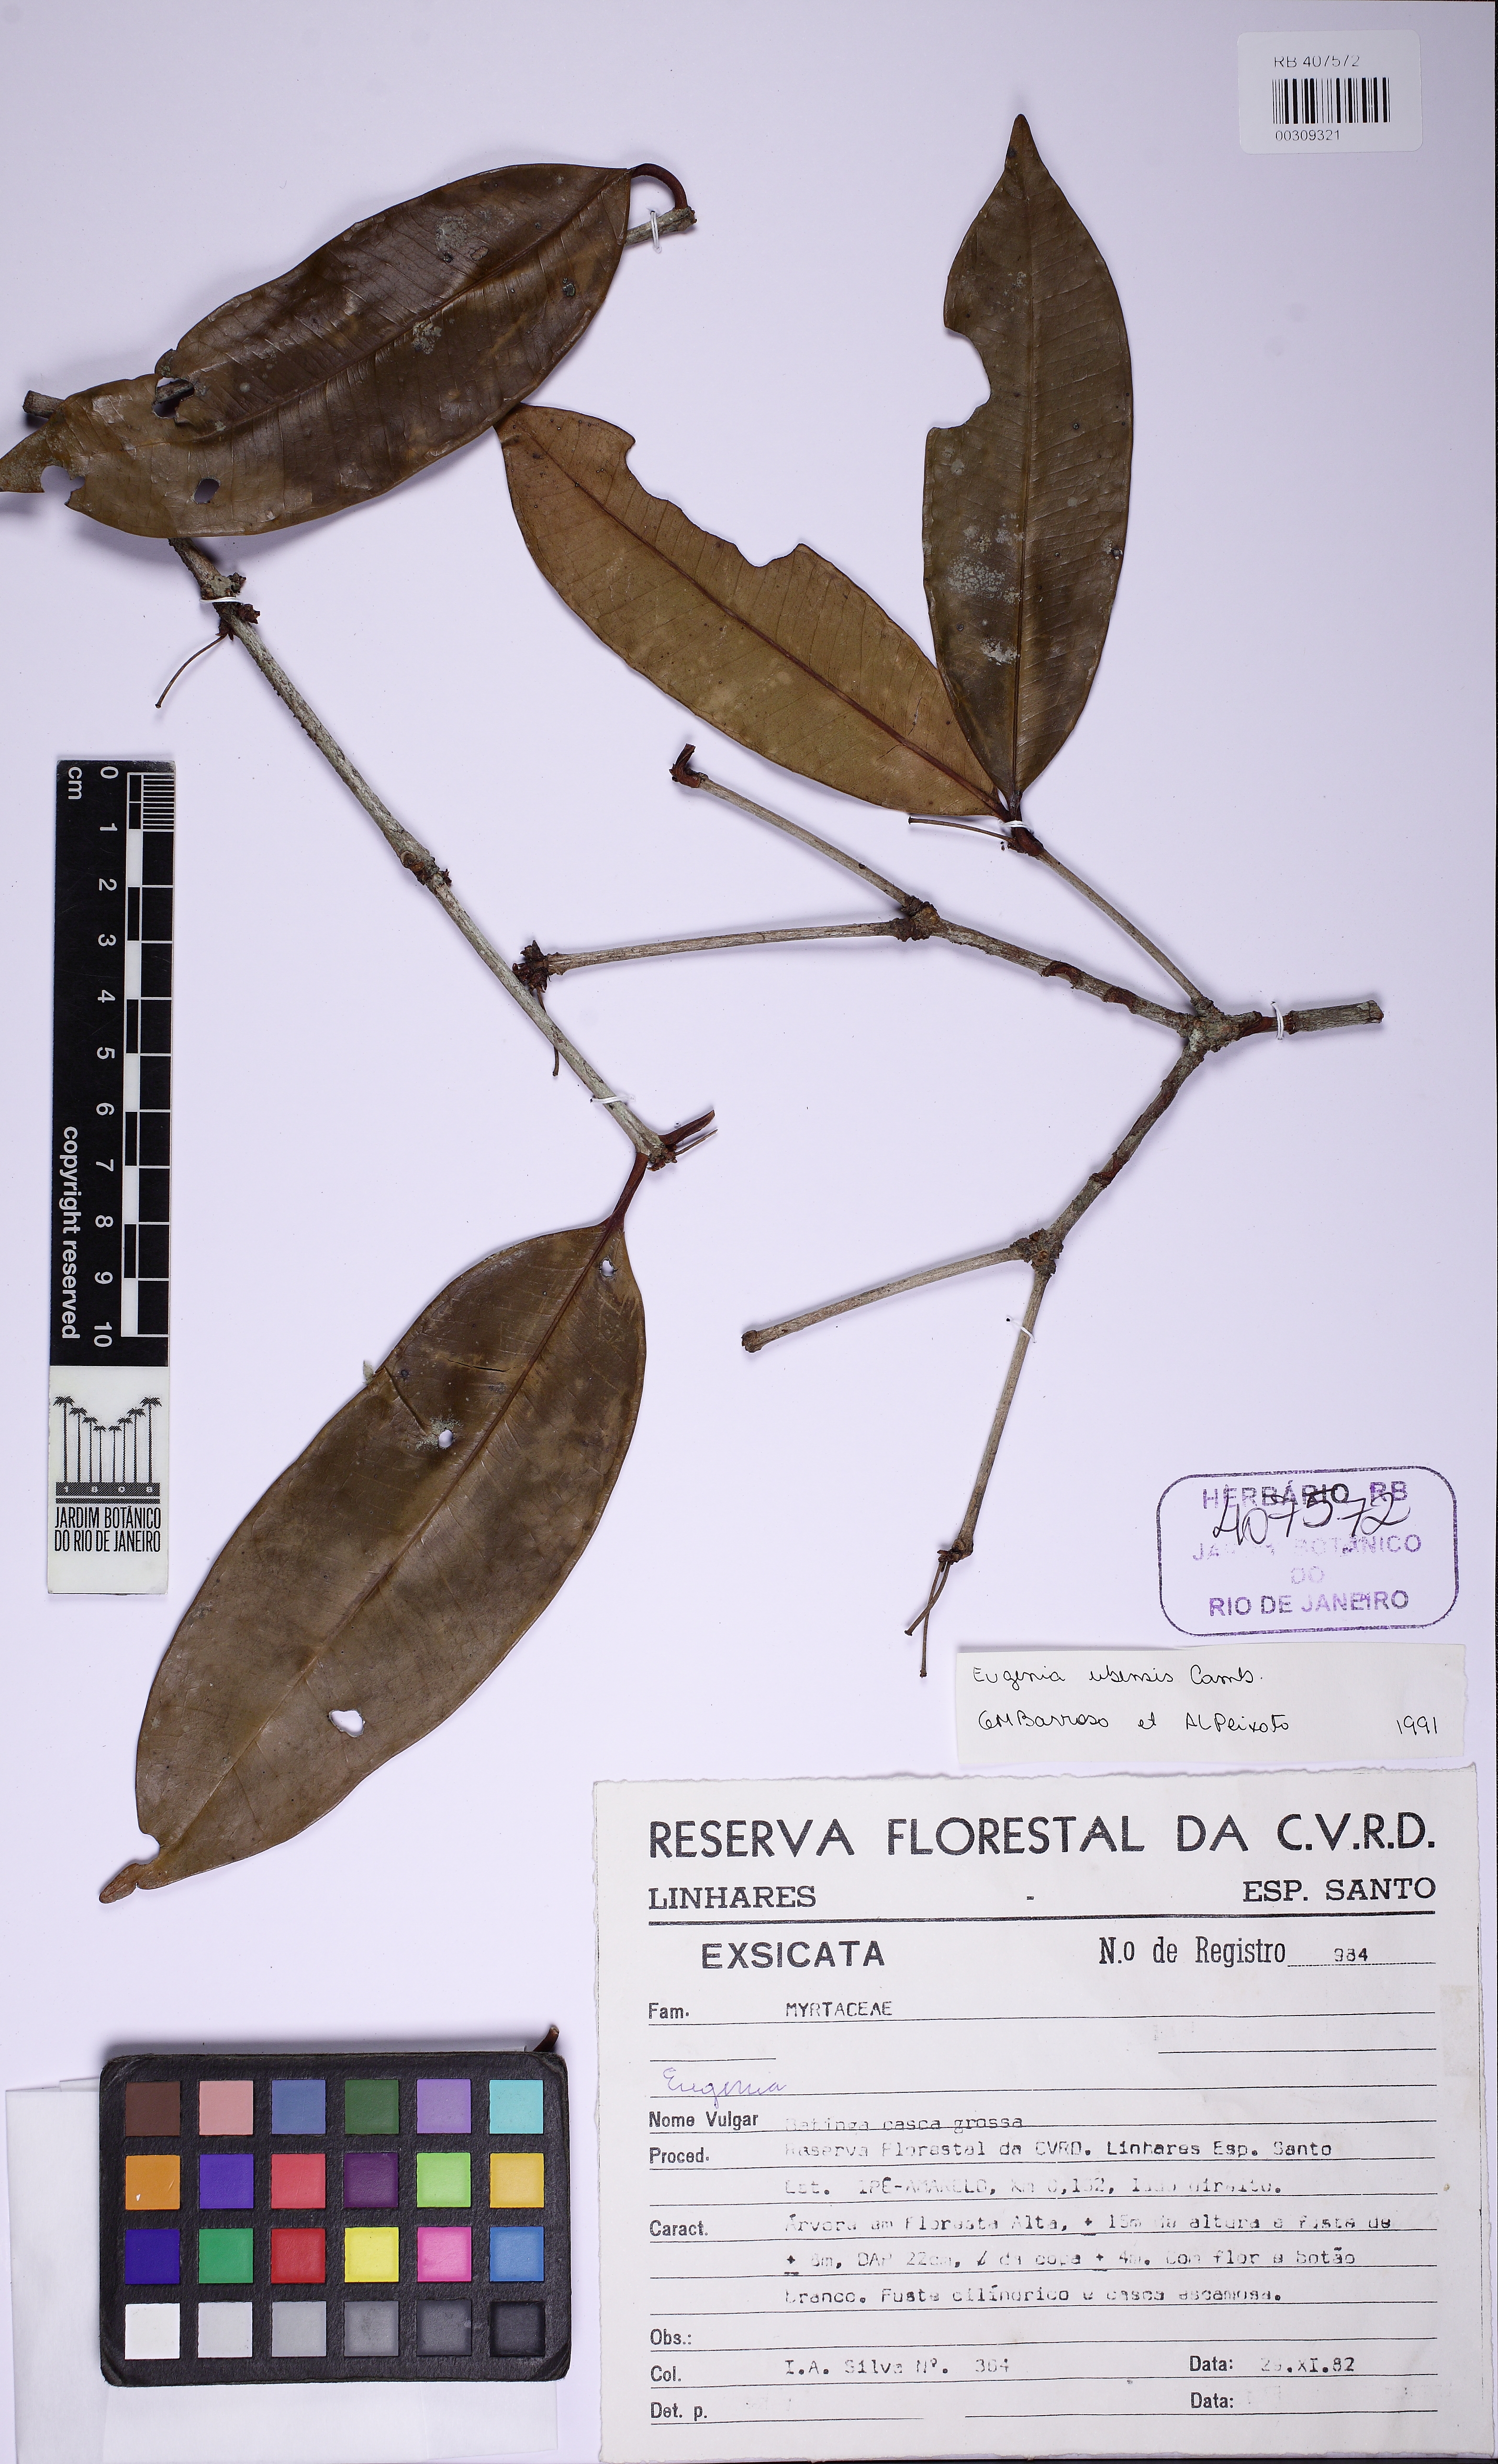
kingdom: Plantae
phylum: Tracheophyta
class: Magnoliopsida
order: Myrtales
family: Myrtaceae
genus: Eugenia
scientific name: Eugenia platyphylla
